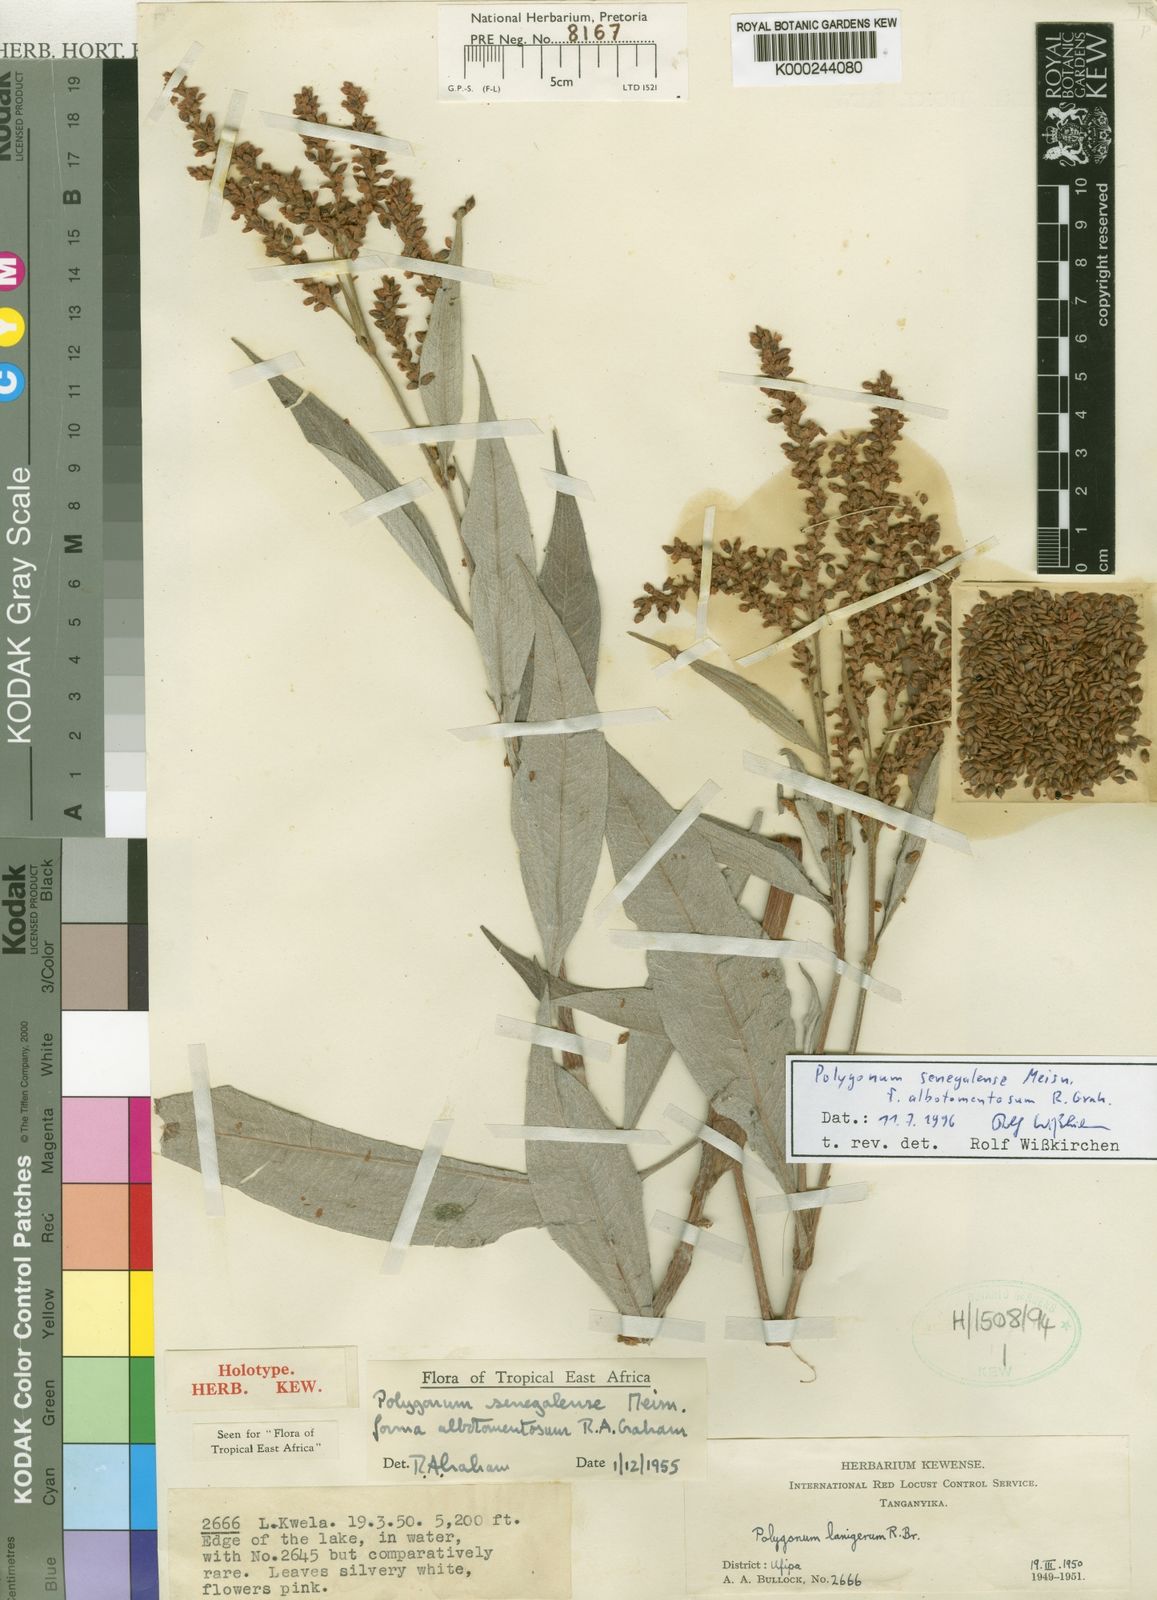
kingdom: Plantae
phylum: Tracheophyta
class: Magnoliopsida
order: Caryophyllales
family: Polygonaceae
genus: Persicaria
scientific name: Persicaria
